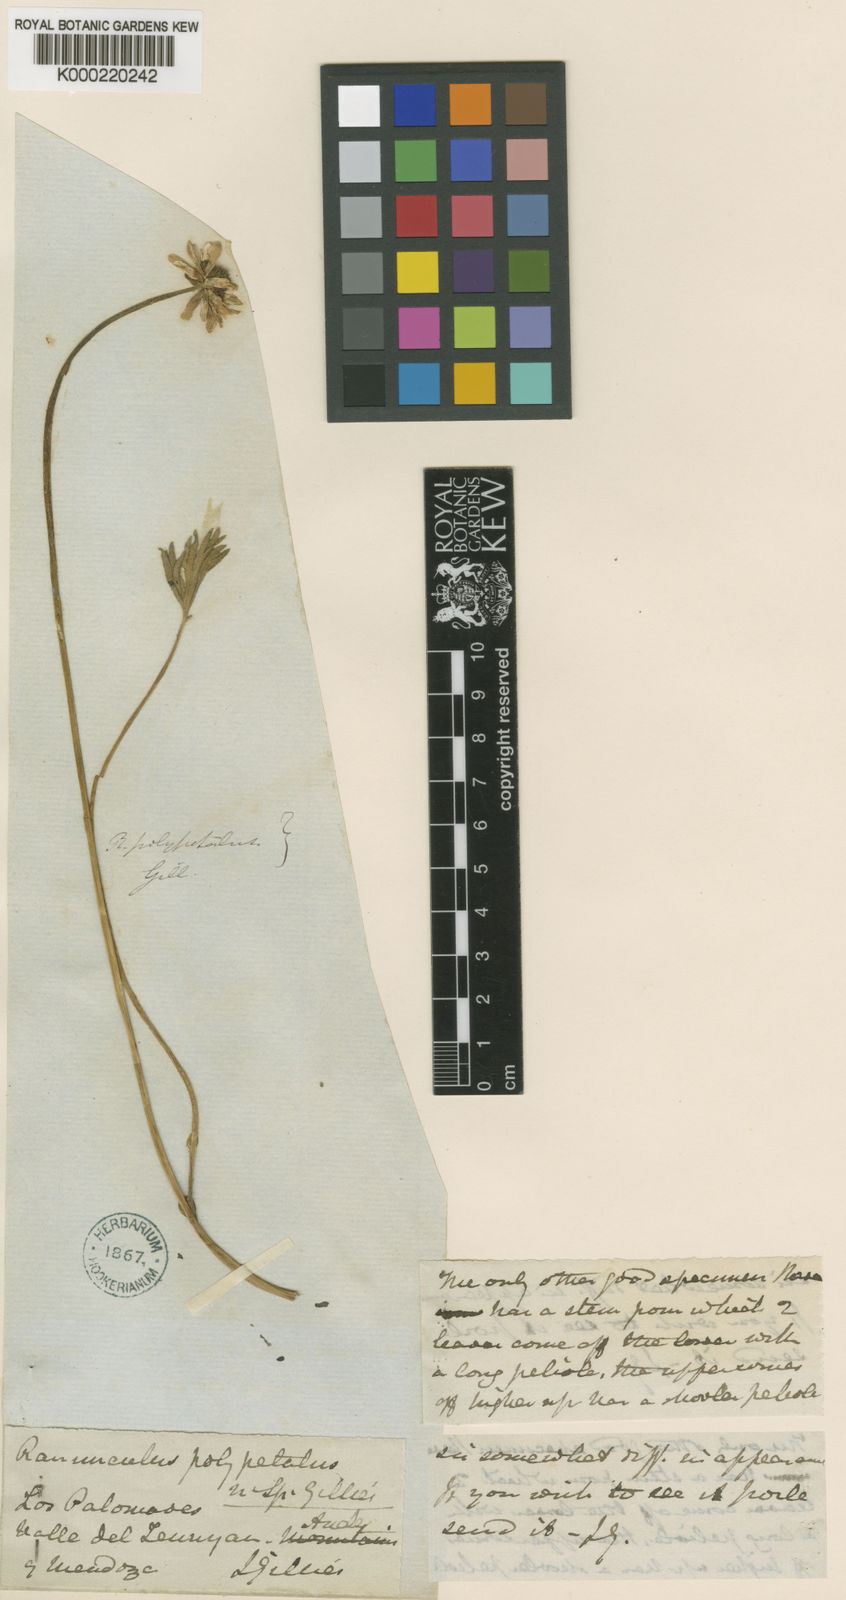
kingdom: Plantae
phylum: Tracheophyta
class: Magnoliopsida
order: Ranunculales
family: Ranunculaceae
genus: Ranunculus
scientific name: Ranunculus peduncularis
